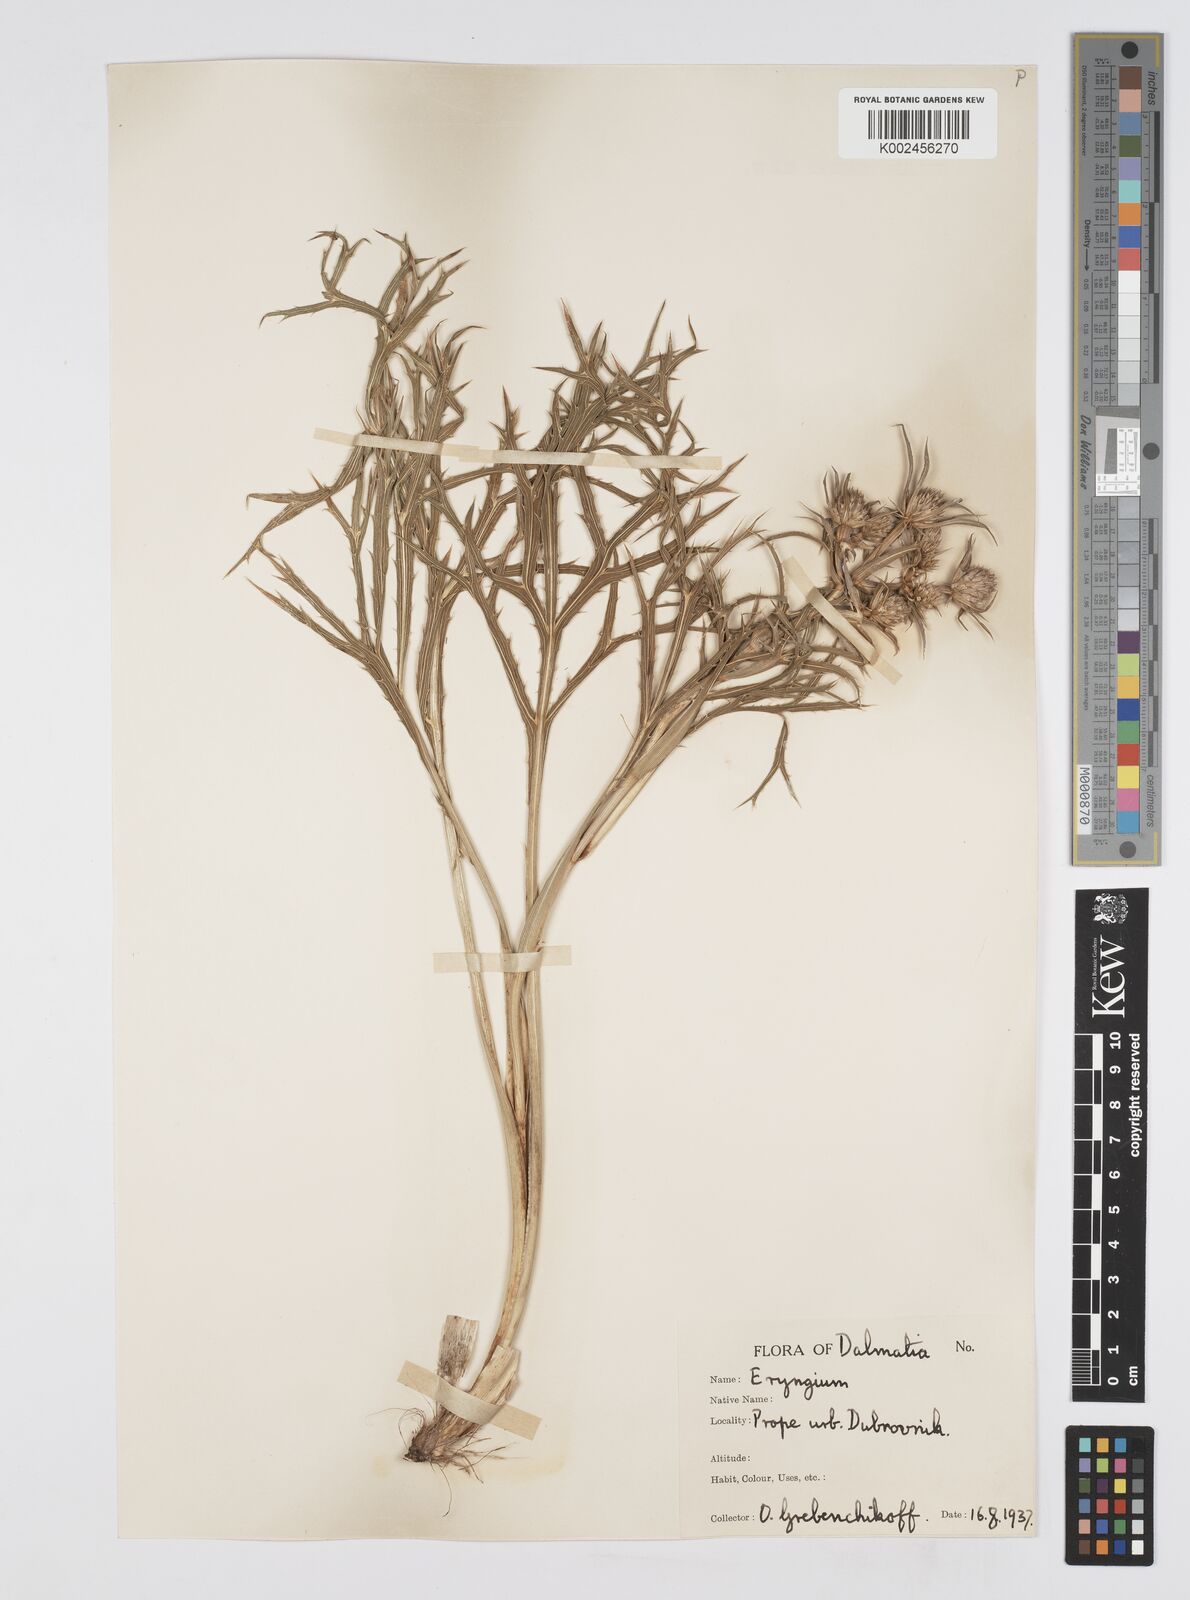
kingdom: Plantae
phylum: Tracheophyta
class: Magnoliopsida
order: Apiales
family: Apiaceae
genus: Eryngium
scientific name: Eryngium amethystinum
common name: Amethyst eryngo
